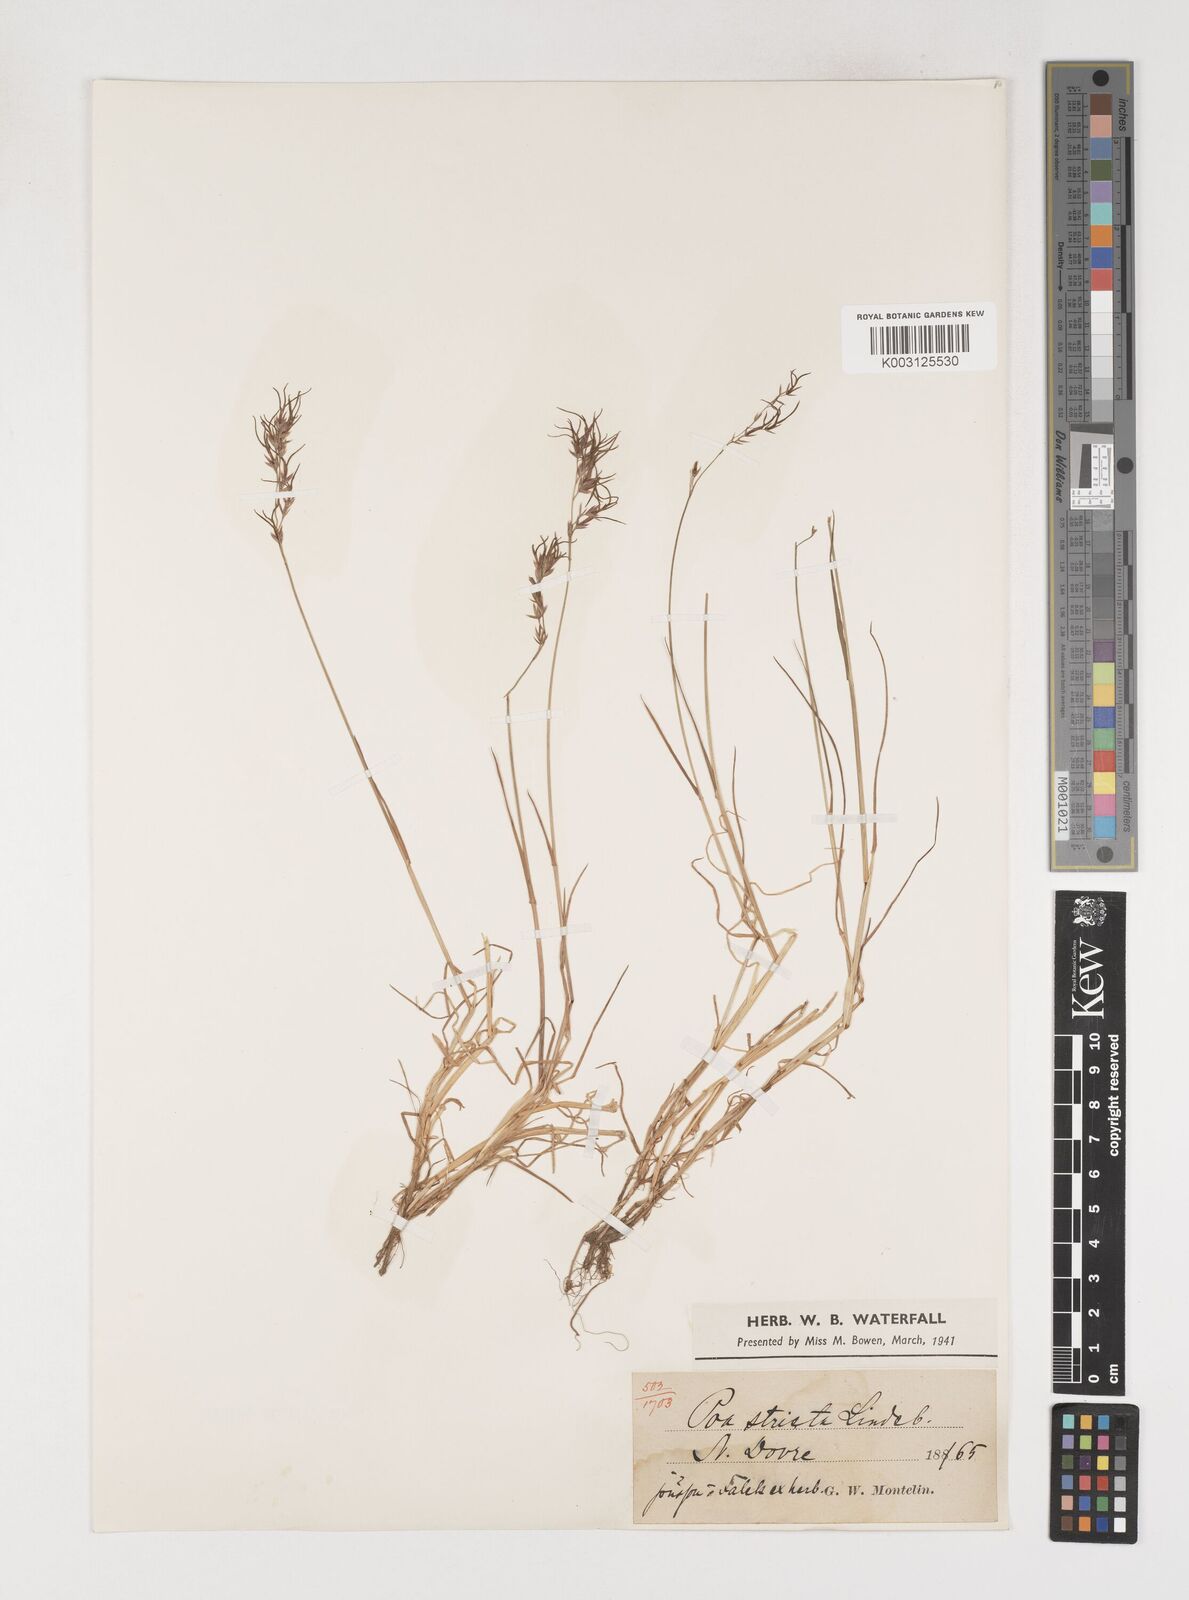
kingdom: Plantae
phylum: Tracheophyta
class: Liliopsida
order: Poales
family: Poaceae
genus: Poa
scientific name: Poa arctica
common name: Arctic bluegrass
